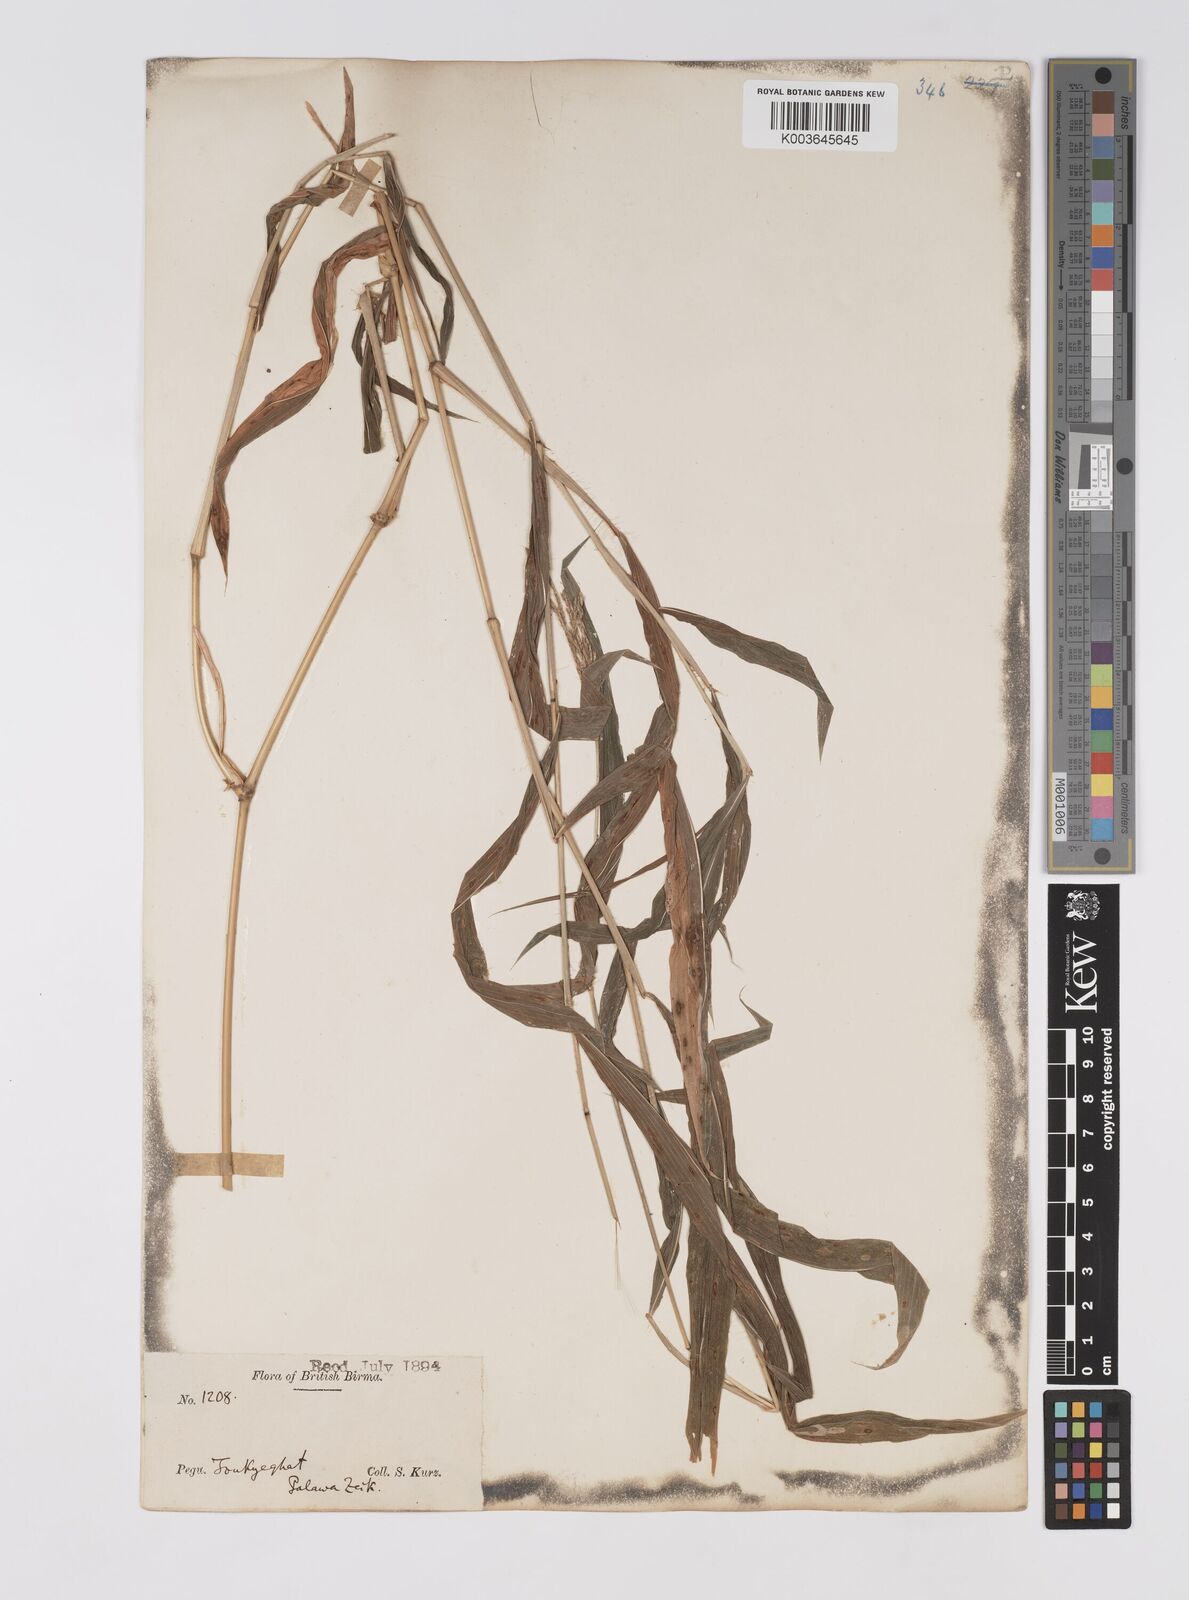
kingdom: Plantae
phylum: Tracheophyta
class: Liliopsida
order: Poales
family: Poaceae
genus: Microstegium
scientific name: Microstegium fasciculatum
